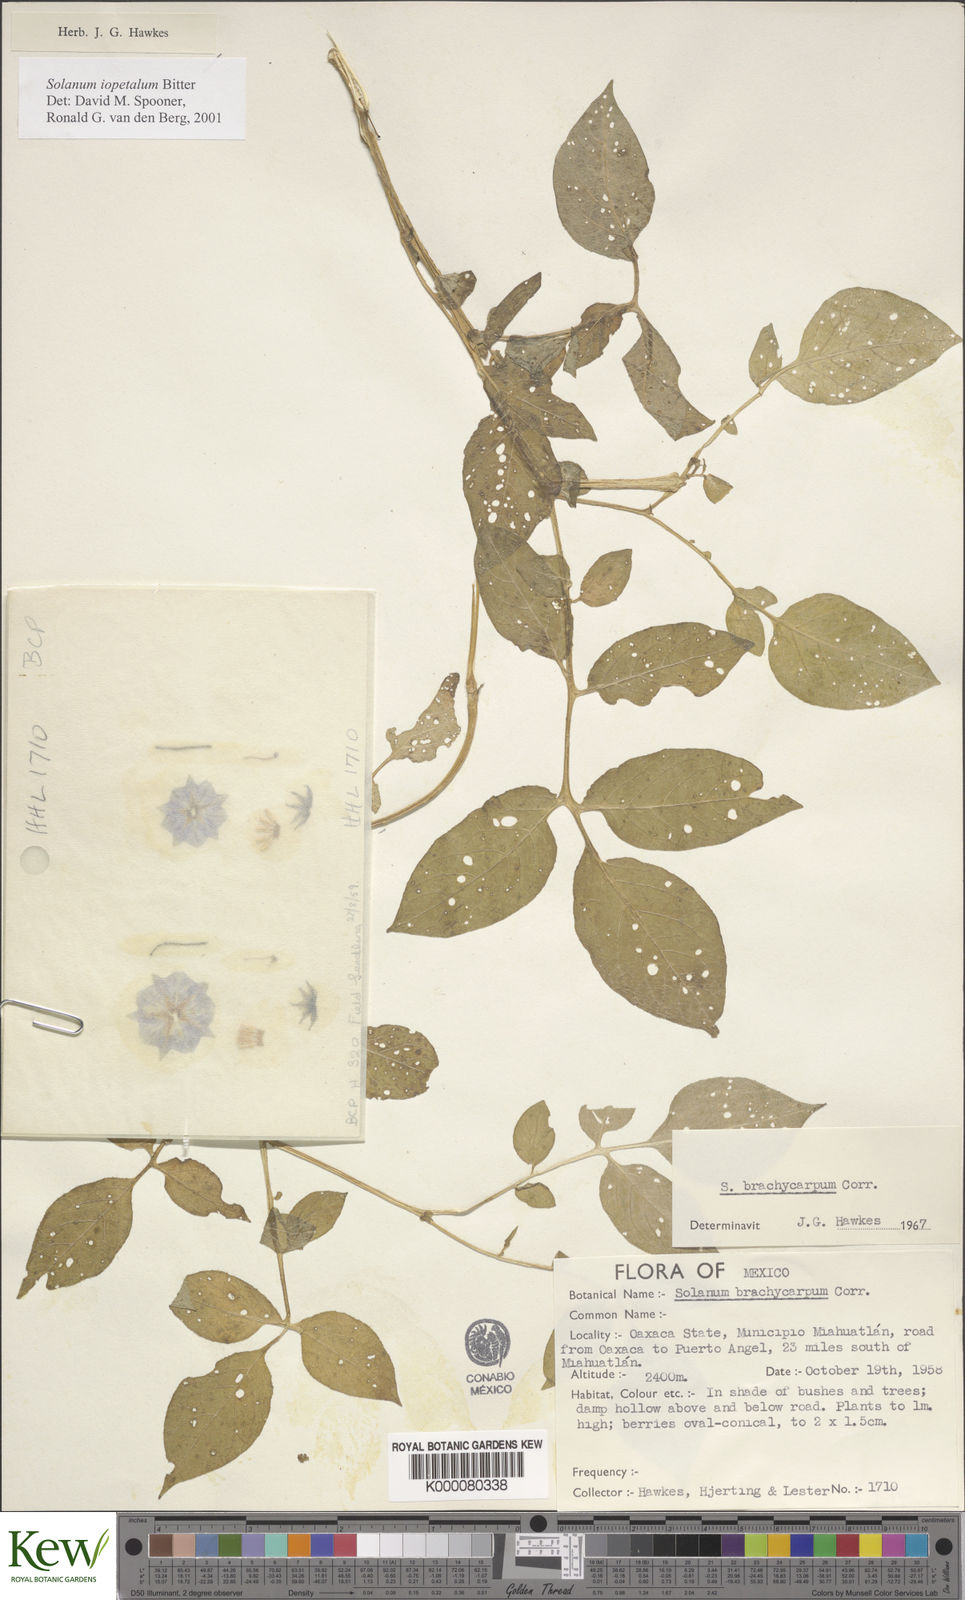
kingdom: Plantae
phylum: Tracheophyta
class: Magnoliopsida
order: Solanales
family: Solanaceae
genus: Solanum
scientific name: Solanum iopetalum
